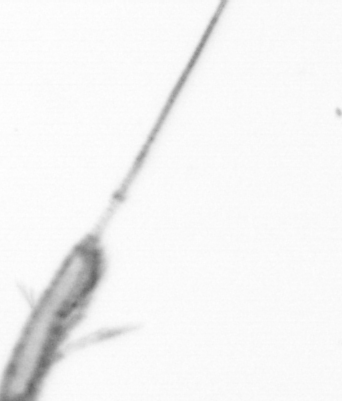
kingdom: Animalia
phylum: Arthropoda
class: Copepoda
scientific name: Copepoda
